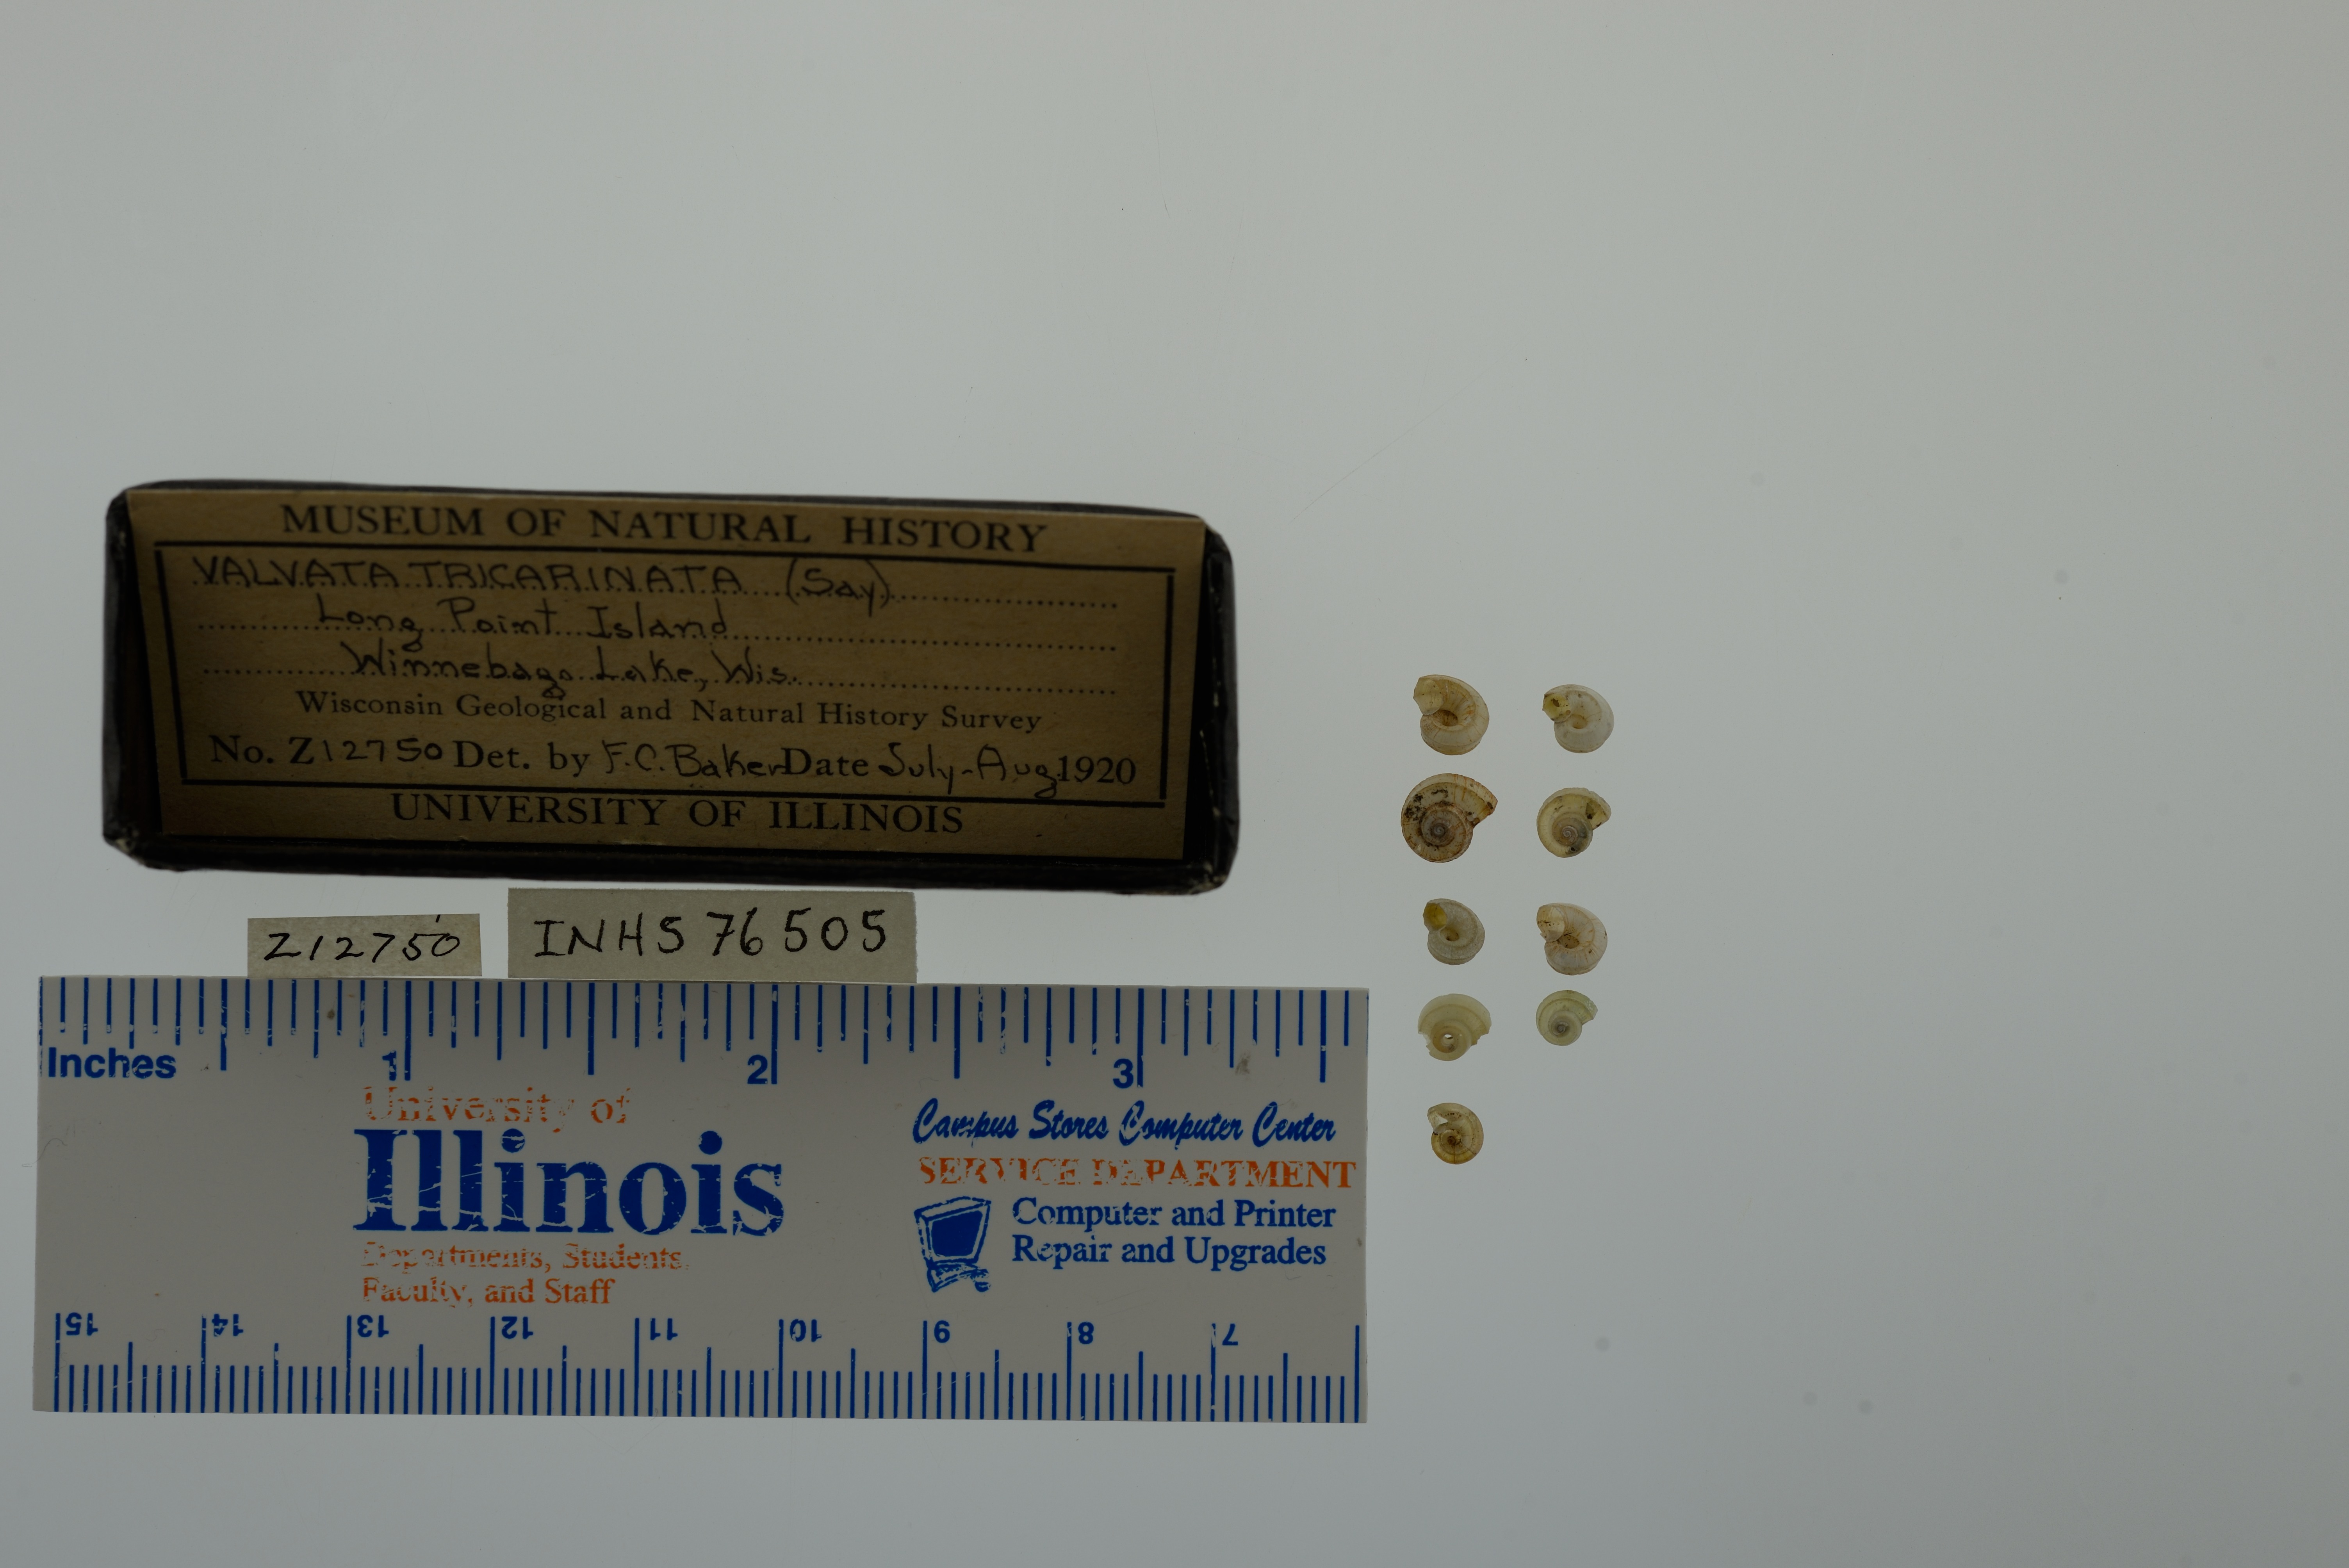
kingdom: Animalia
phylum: Mollusca
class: Gastropoda
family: Valvatidae
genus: Valvata
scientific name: Valvata tricarinata
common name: Three-ridge valvata
